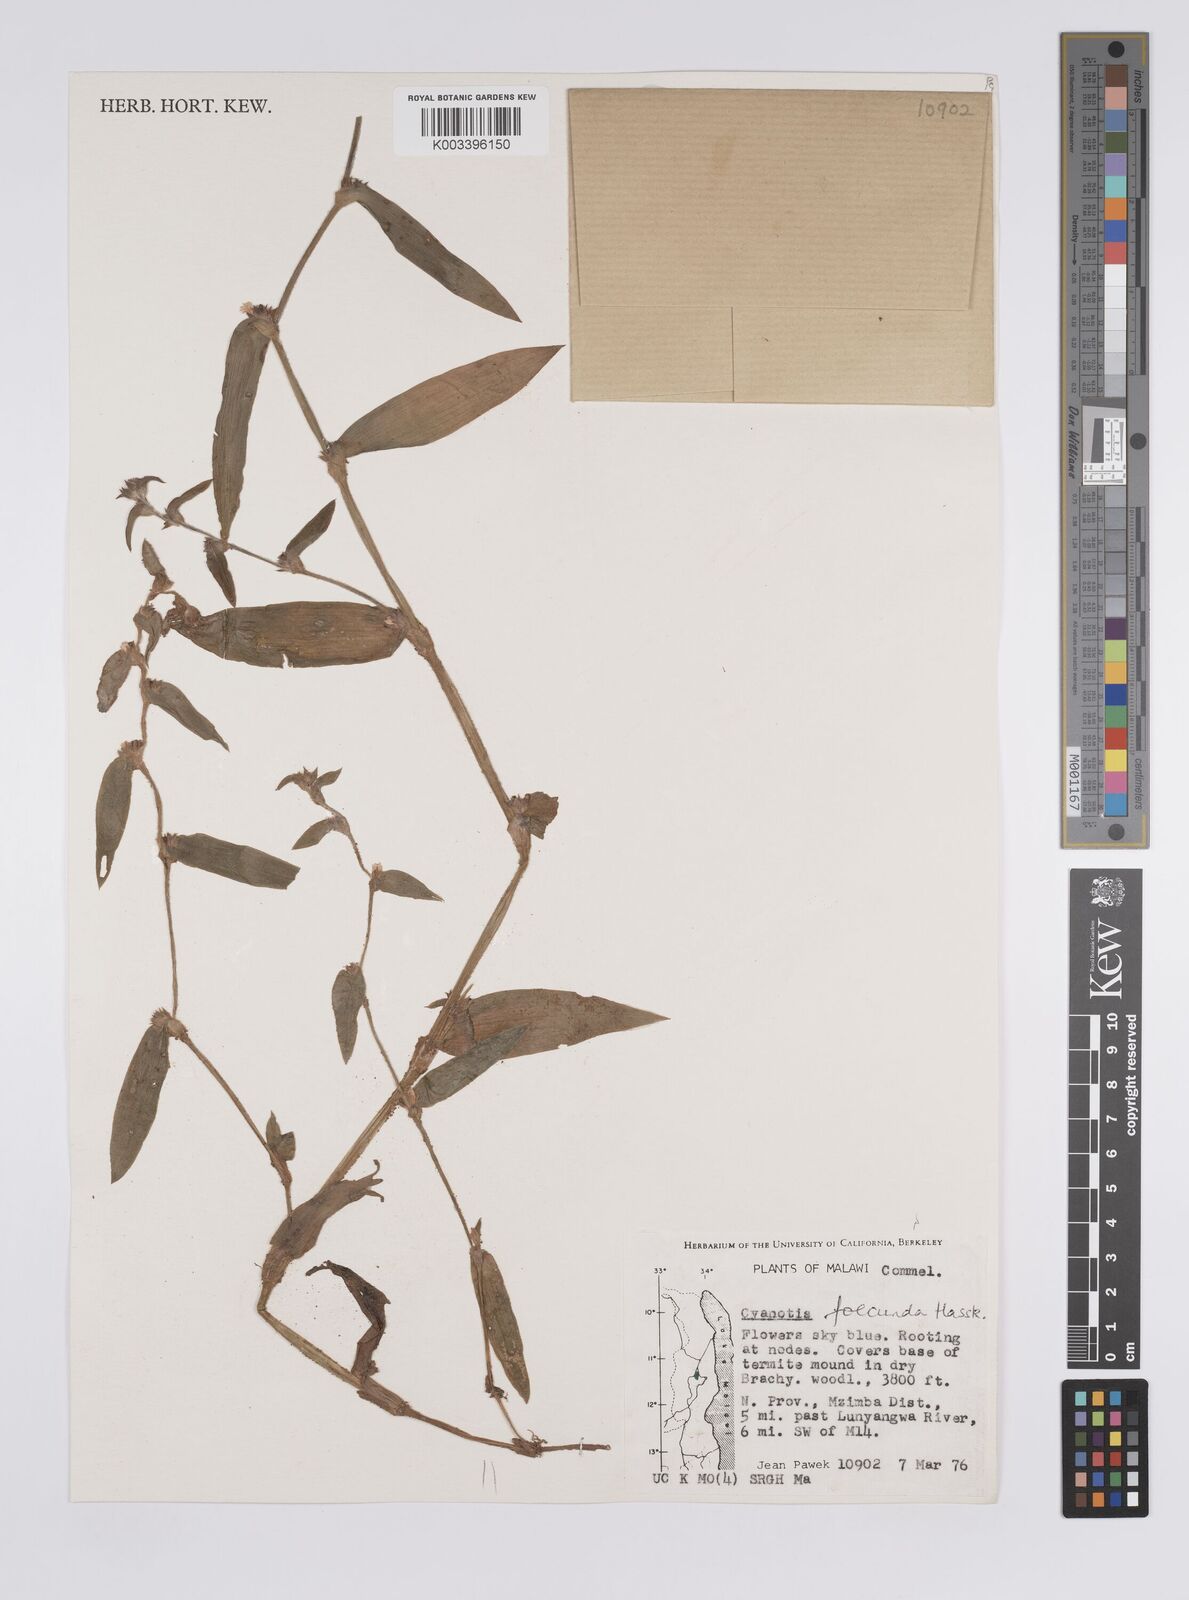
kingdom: Plantae
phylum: Tracheophyta
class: Liliopsida
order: Commelinales
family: Commelinaceae
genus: Cyanotis
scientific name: Cyanotis foecunda
